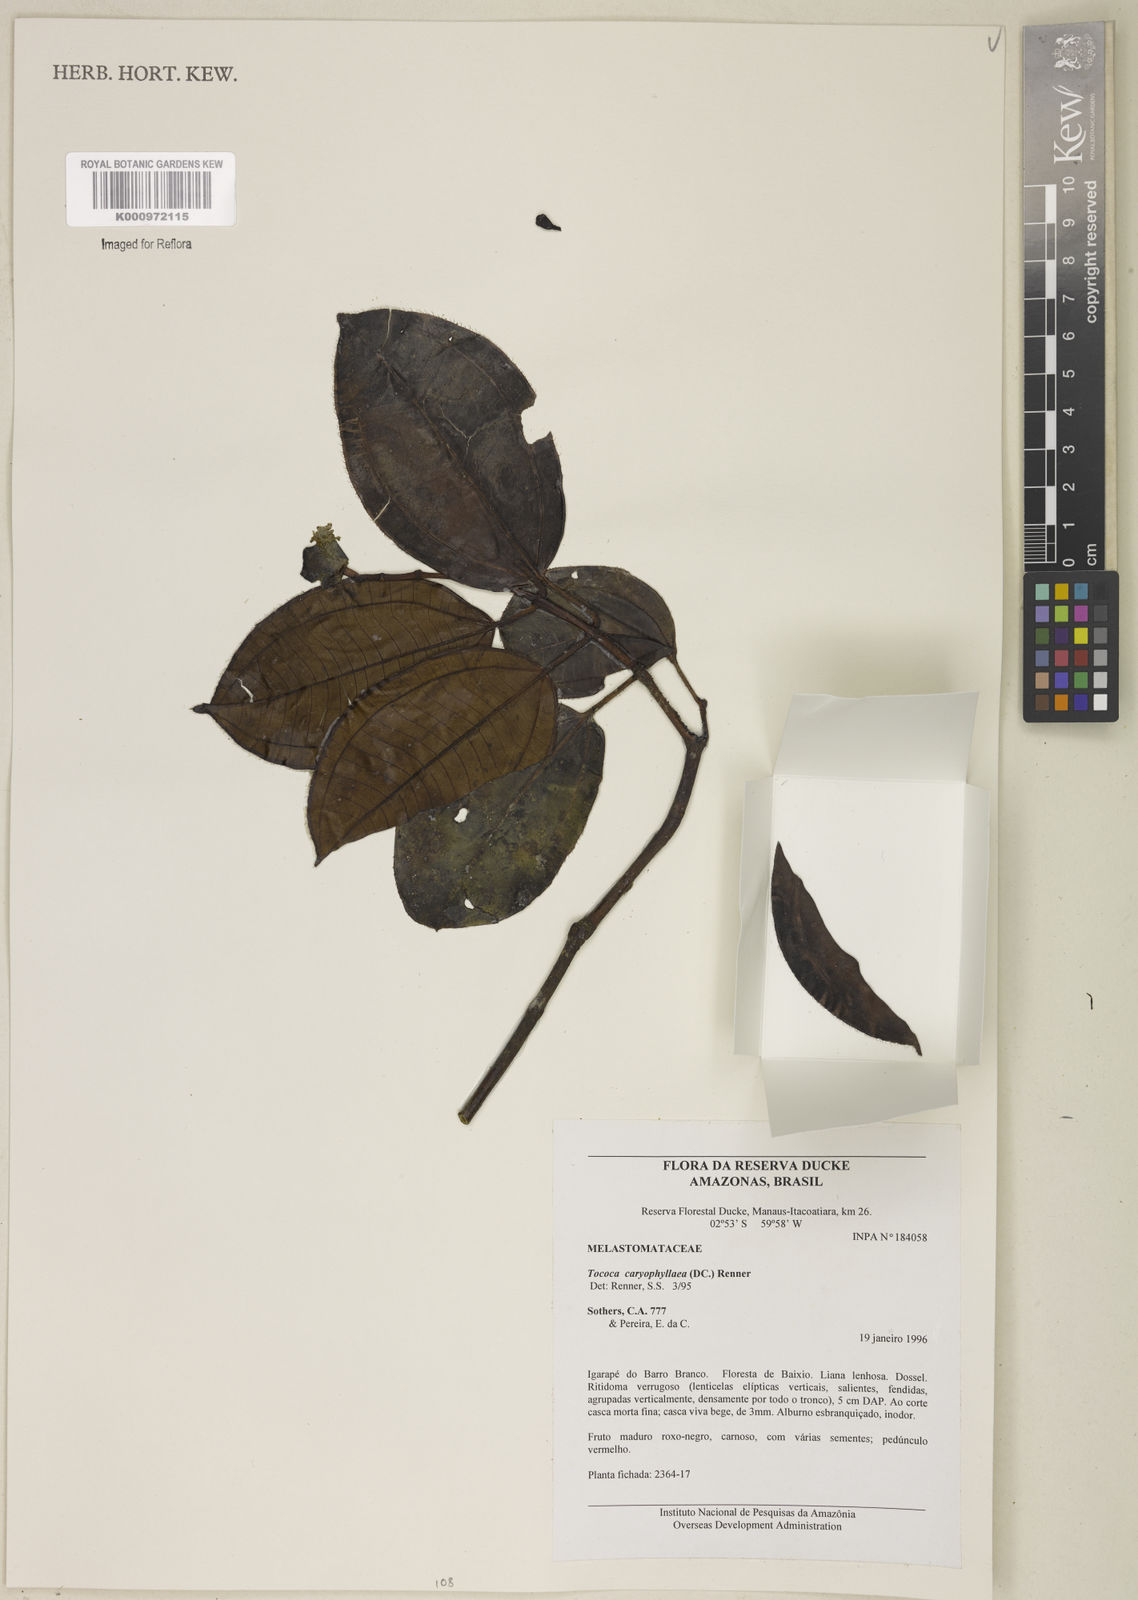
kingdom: Plantae
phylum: Tracheophyta
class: Magnoliopsida
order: Myrtales
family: Melastomataceae
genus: Miconia
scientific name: Miconia caryophyllacea
